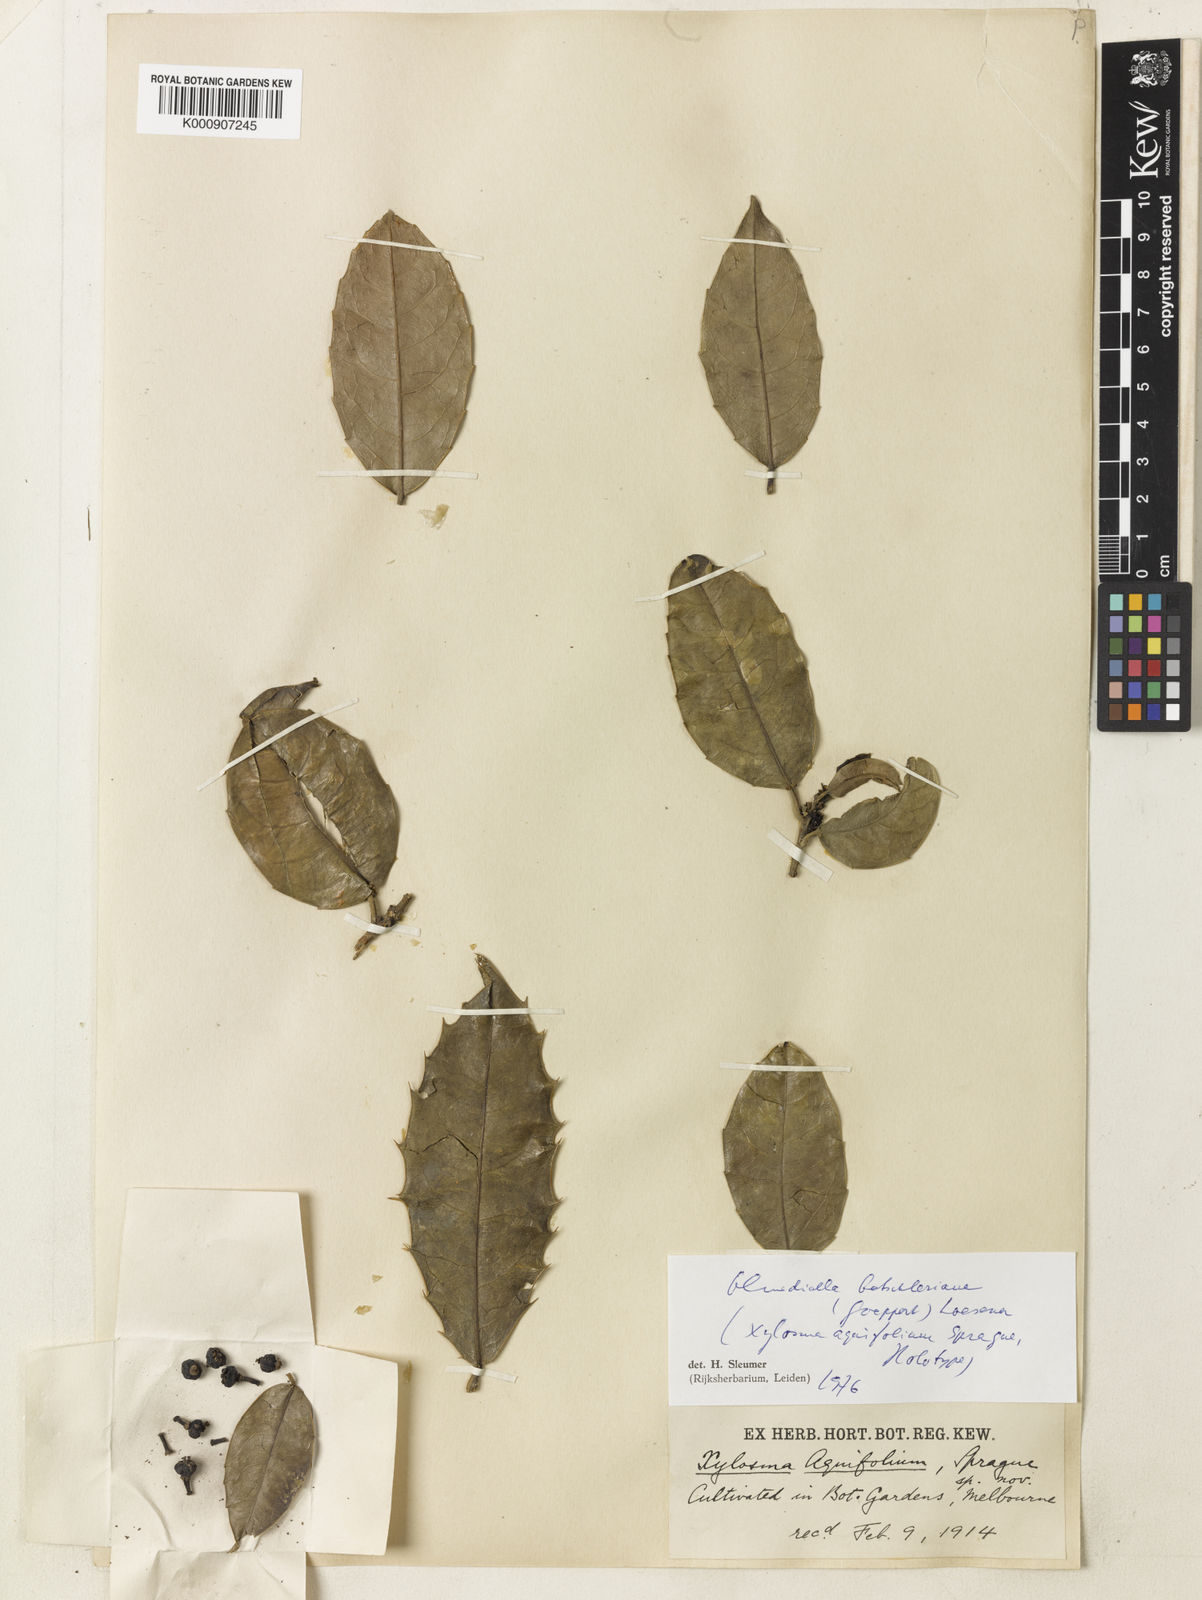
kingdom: Plantae
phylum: Tracheophyta
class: Magnoliopsida
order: Malpighiales
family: Salicaceae
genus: Olmediella
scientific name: Olmediella
